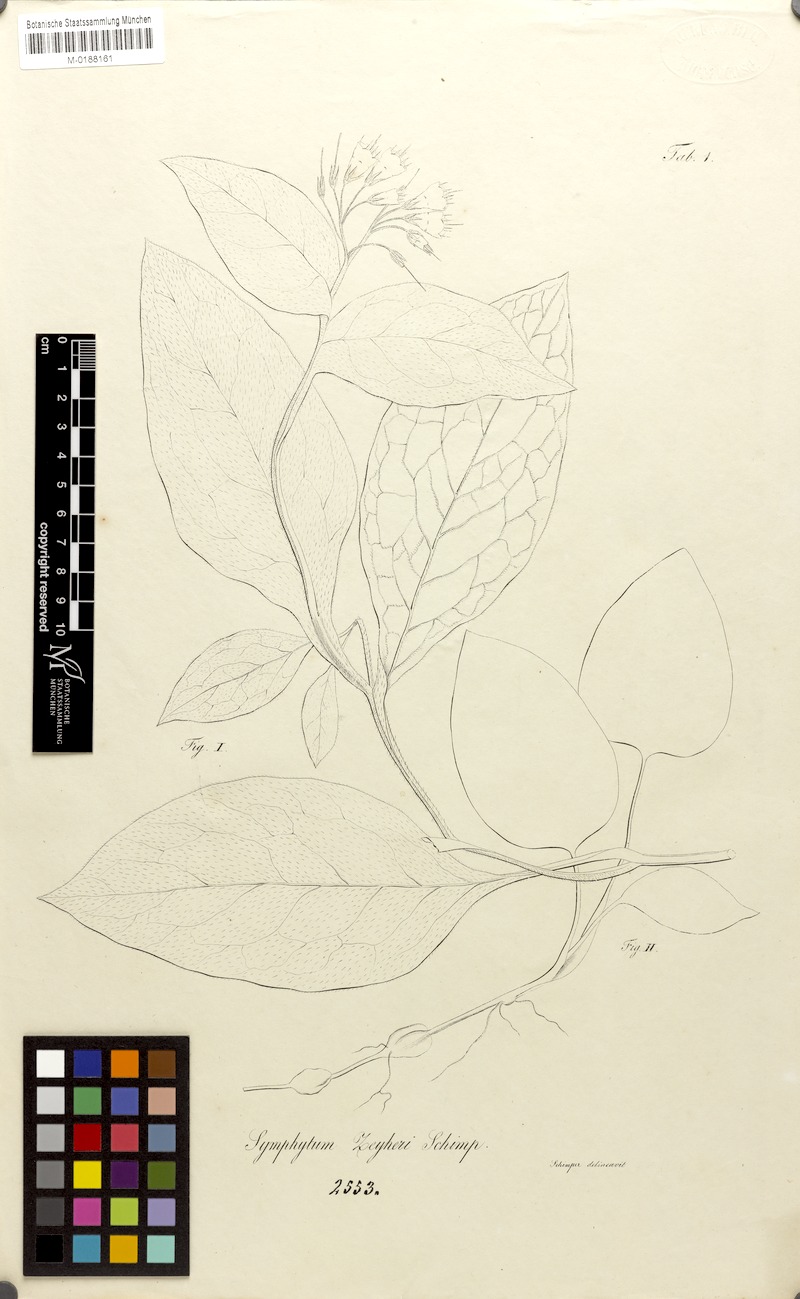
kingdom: Plantae
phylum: Tracheophyta
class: Magnoliopsida
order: Boraginales
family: Boraginaceae
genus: Symphytum
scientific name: Symphytum bulbosum
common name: Bulbous comfrey
